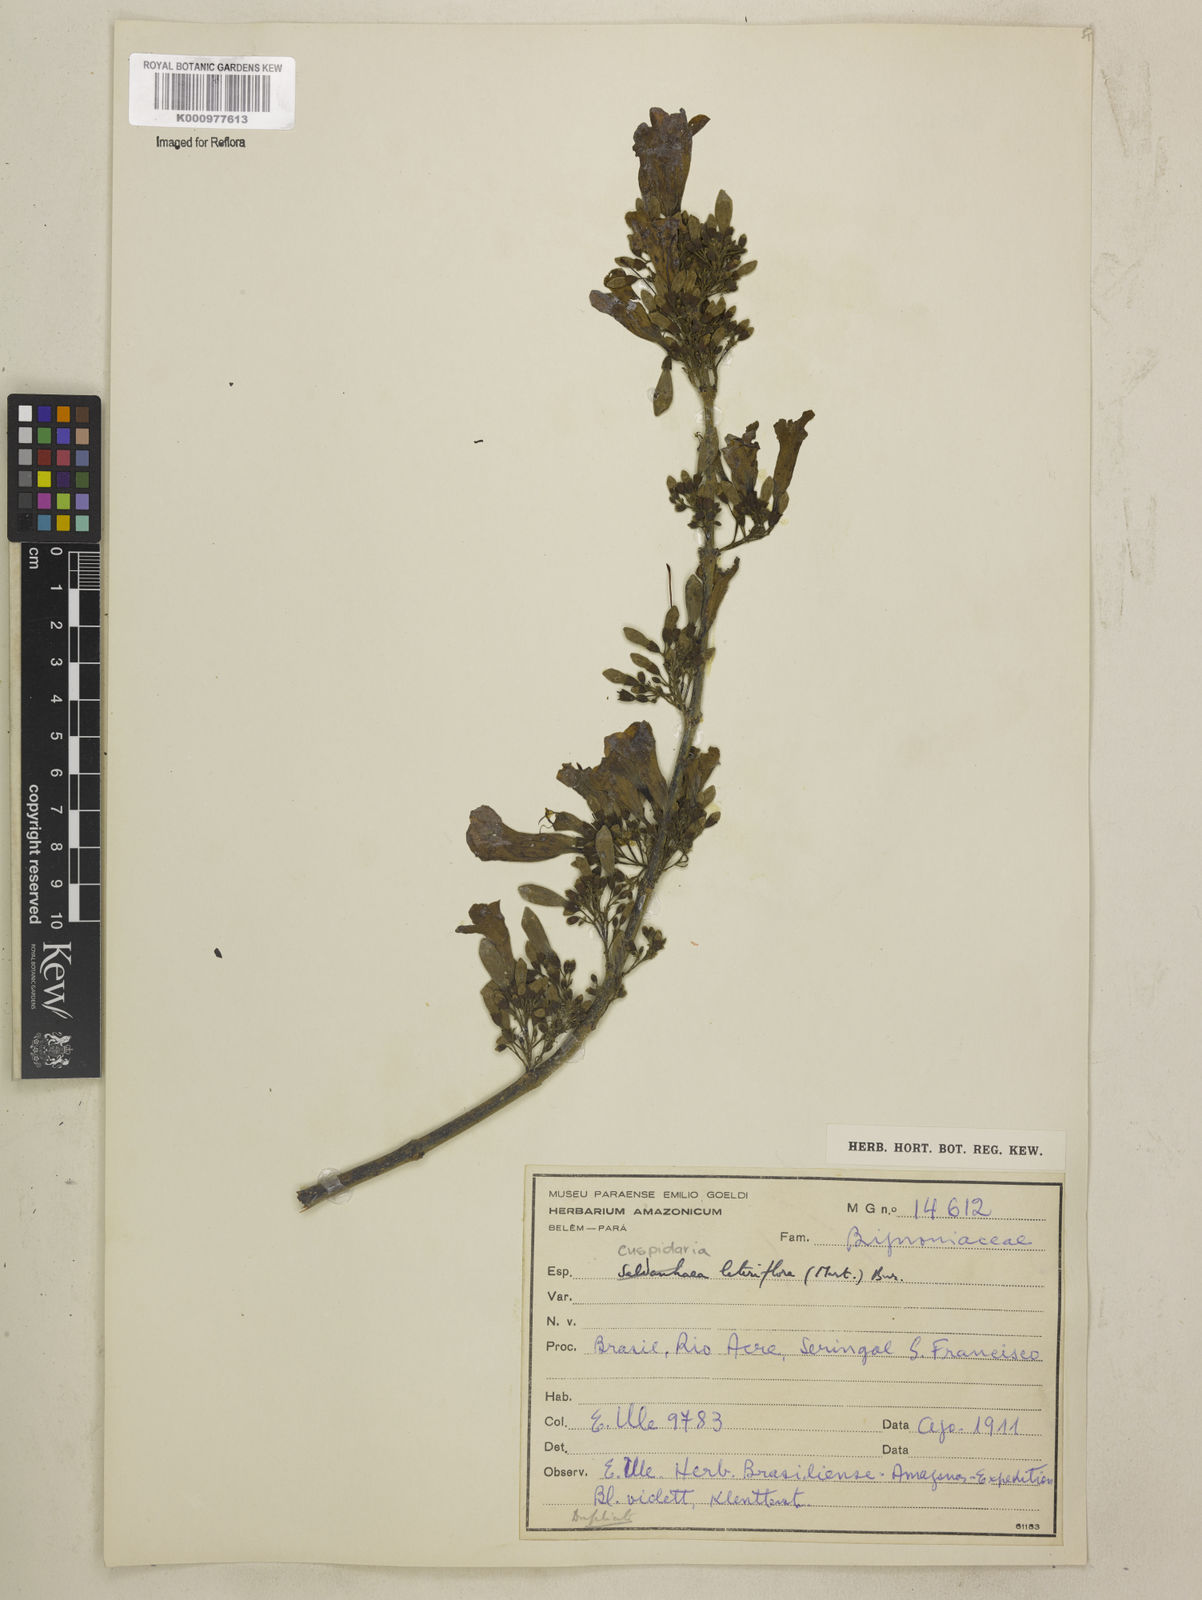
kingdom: Plantae
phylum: Tracheophyta
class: Magnoliopsida
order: Lamiales
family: Bignoniaceae
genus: Cuspidaria
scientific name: Cuspidaria lateriflora
